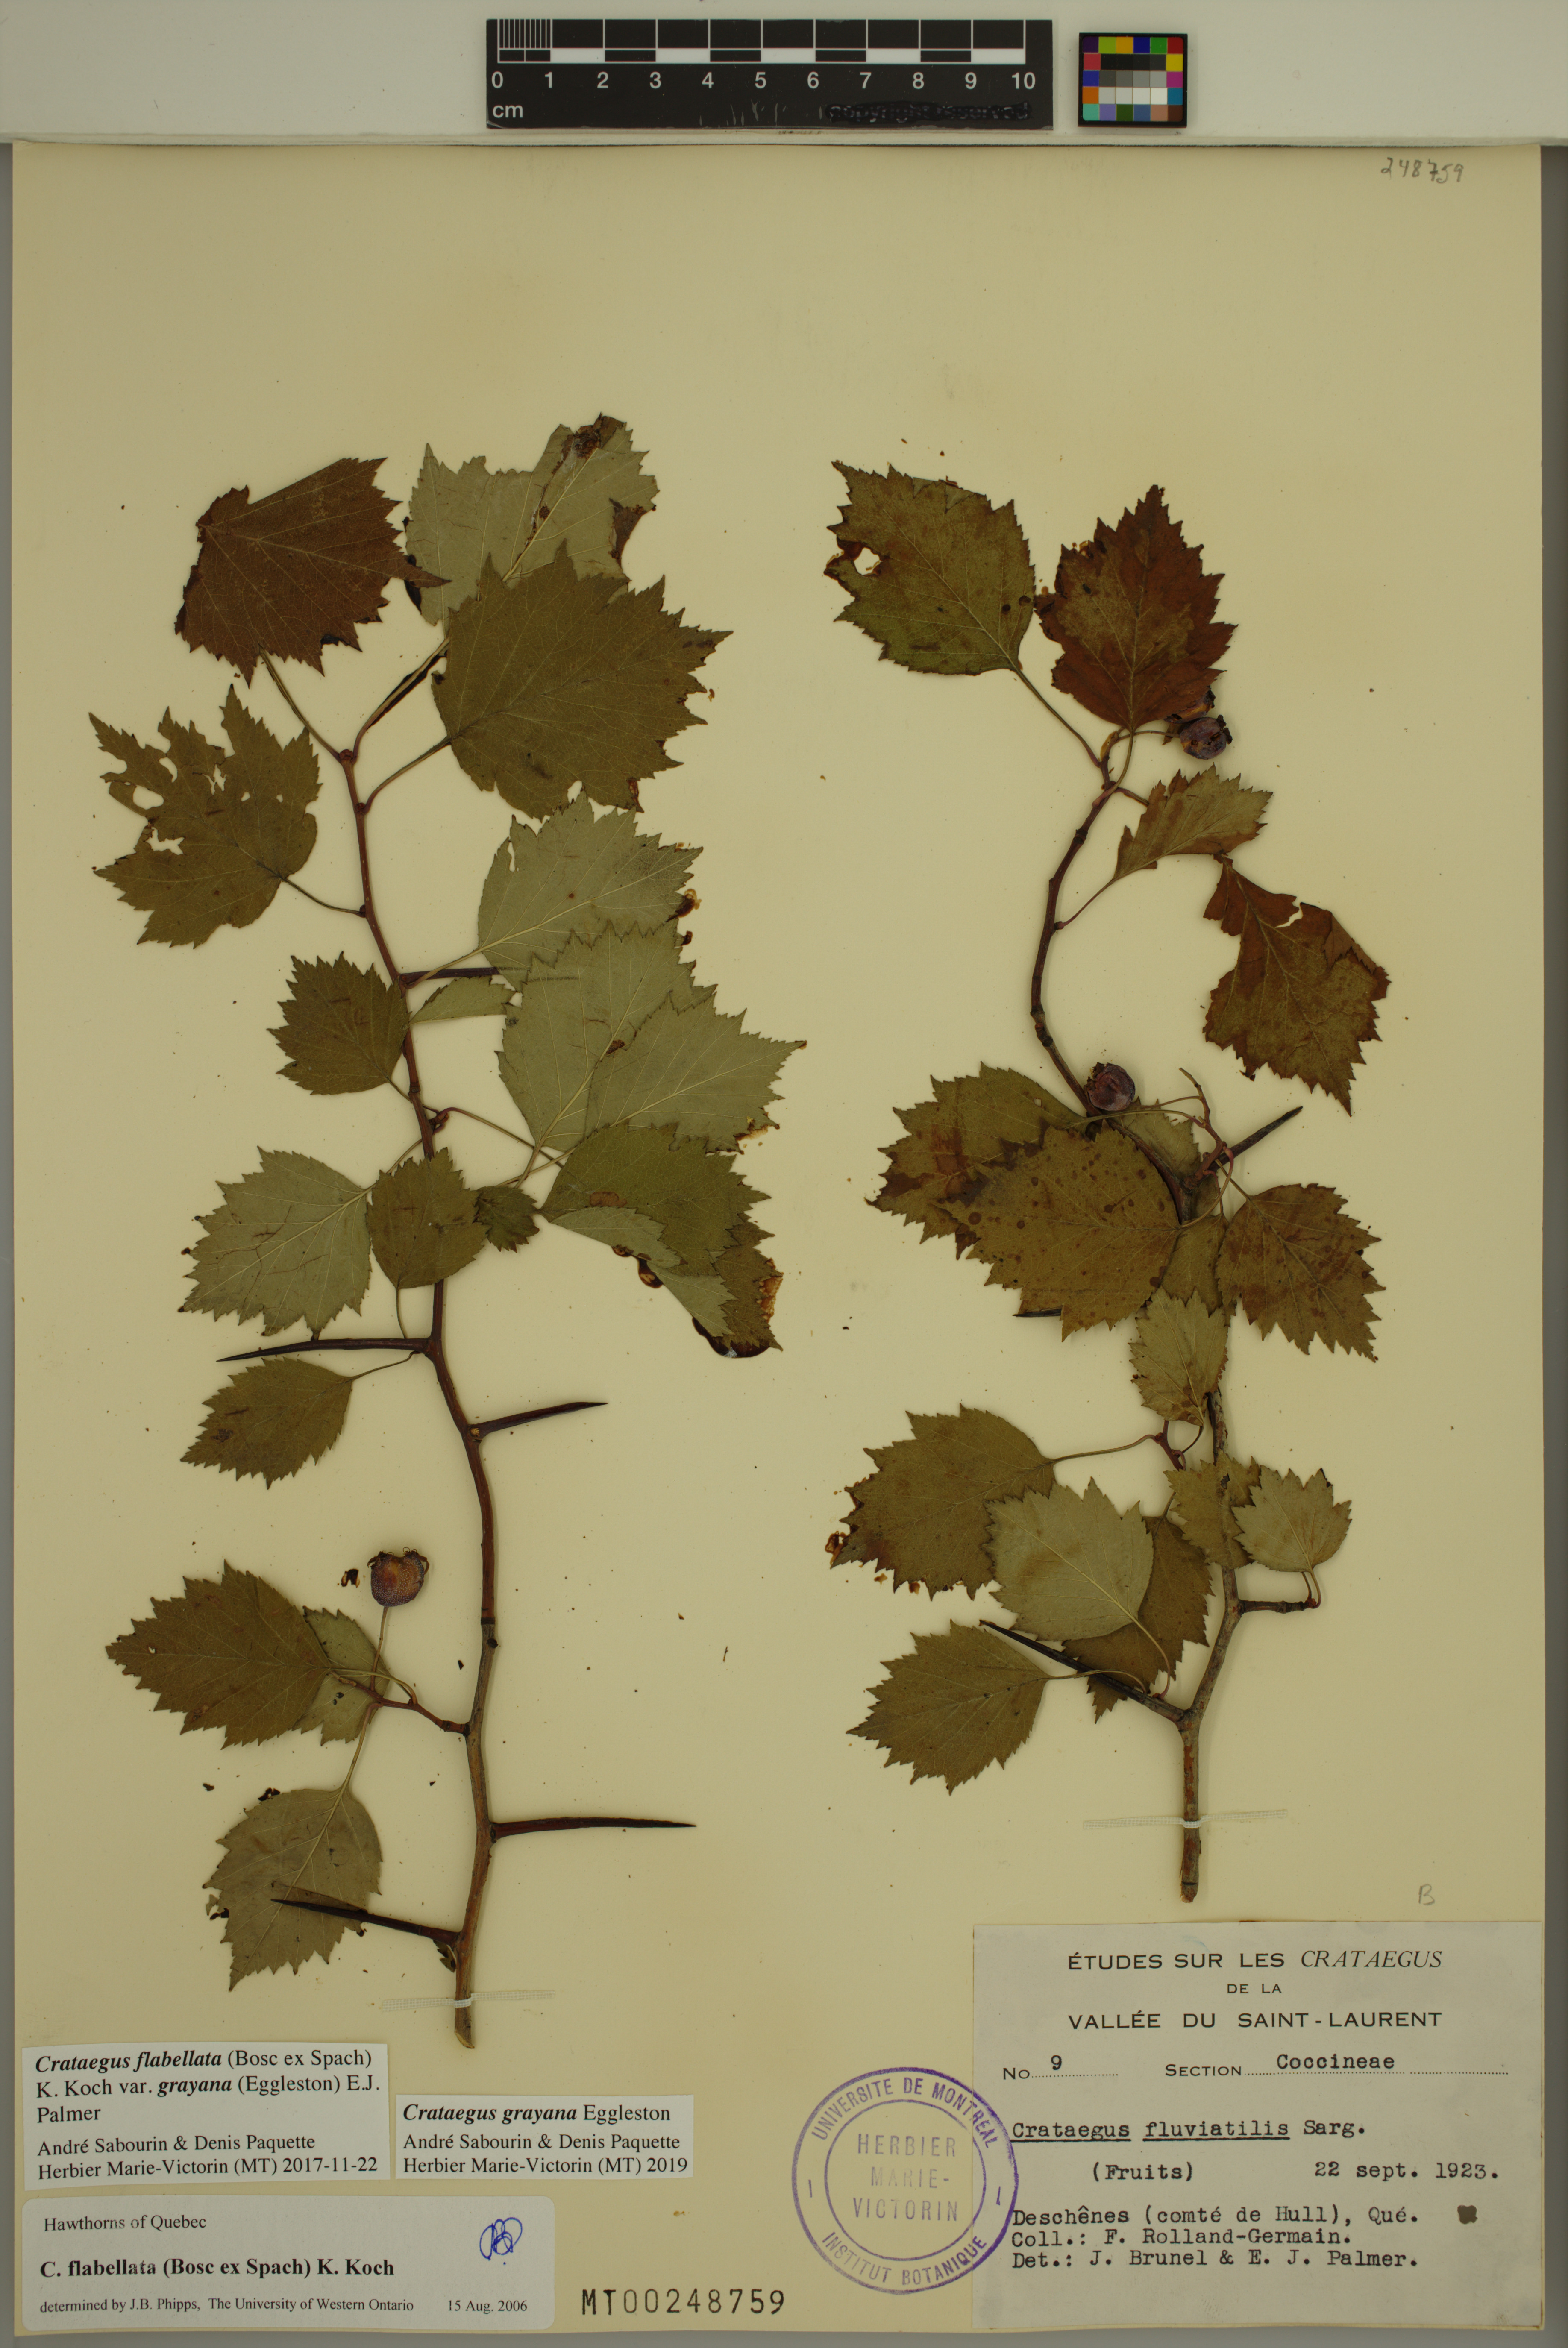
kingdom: Plantae
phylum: Tracheophyta
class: Magnoliopsida
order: Rosales
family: Rosaceae
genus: Crataegus
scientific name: Crataegus schuettei
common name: Schuette's hawthorn
